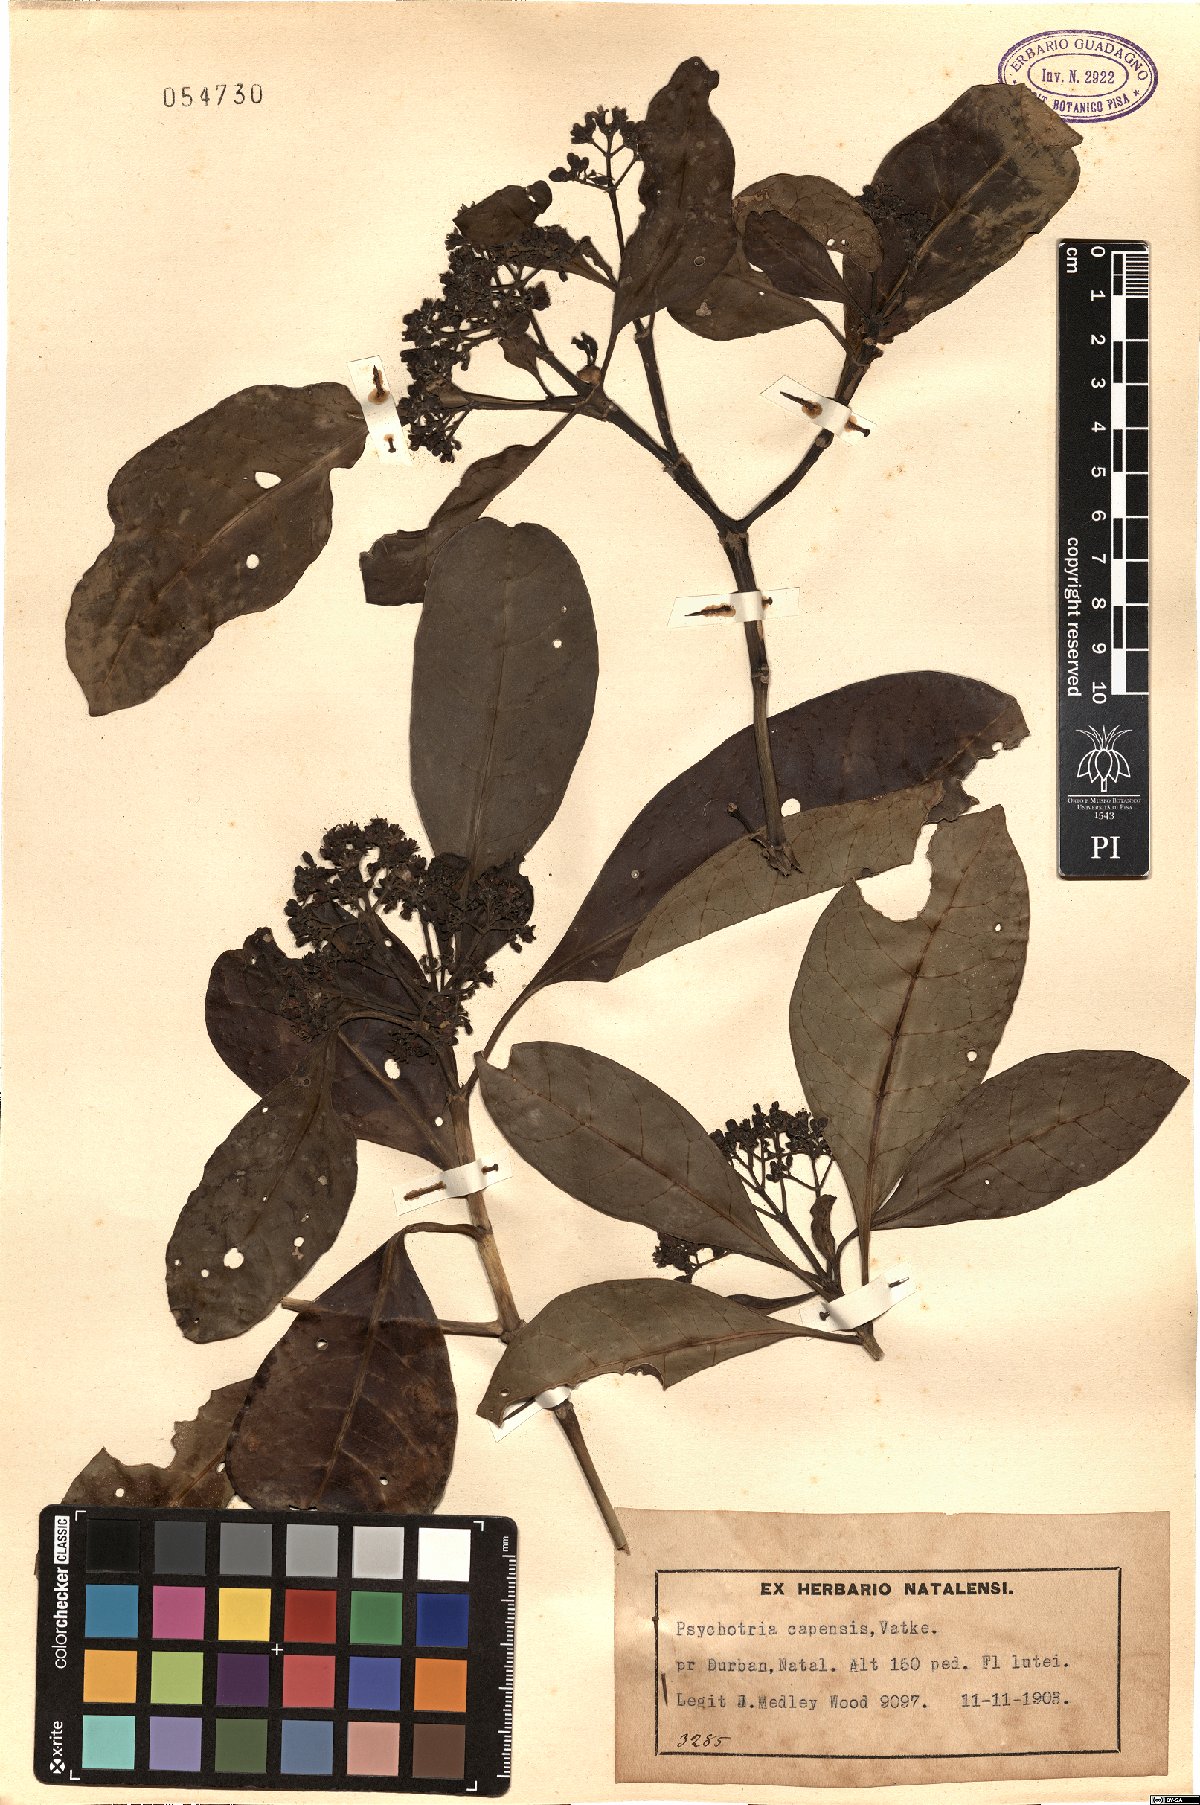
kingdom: Plantae
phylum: Tracheophyta
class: Magnoliopsida
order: Gentianales
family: Rubiaceae
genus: Psychotria
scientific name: Psychotria capensis
